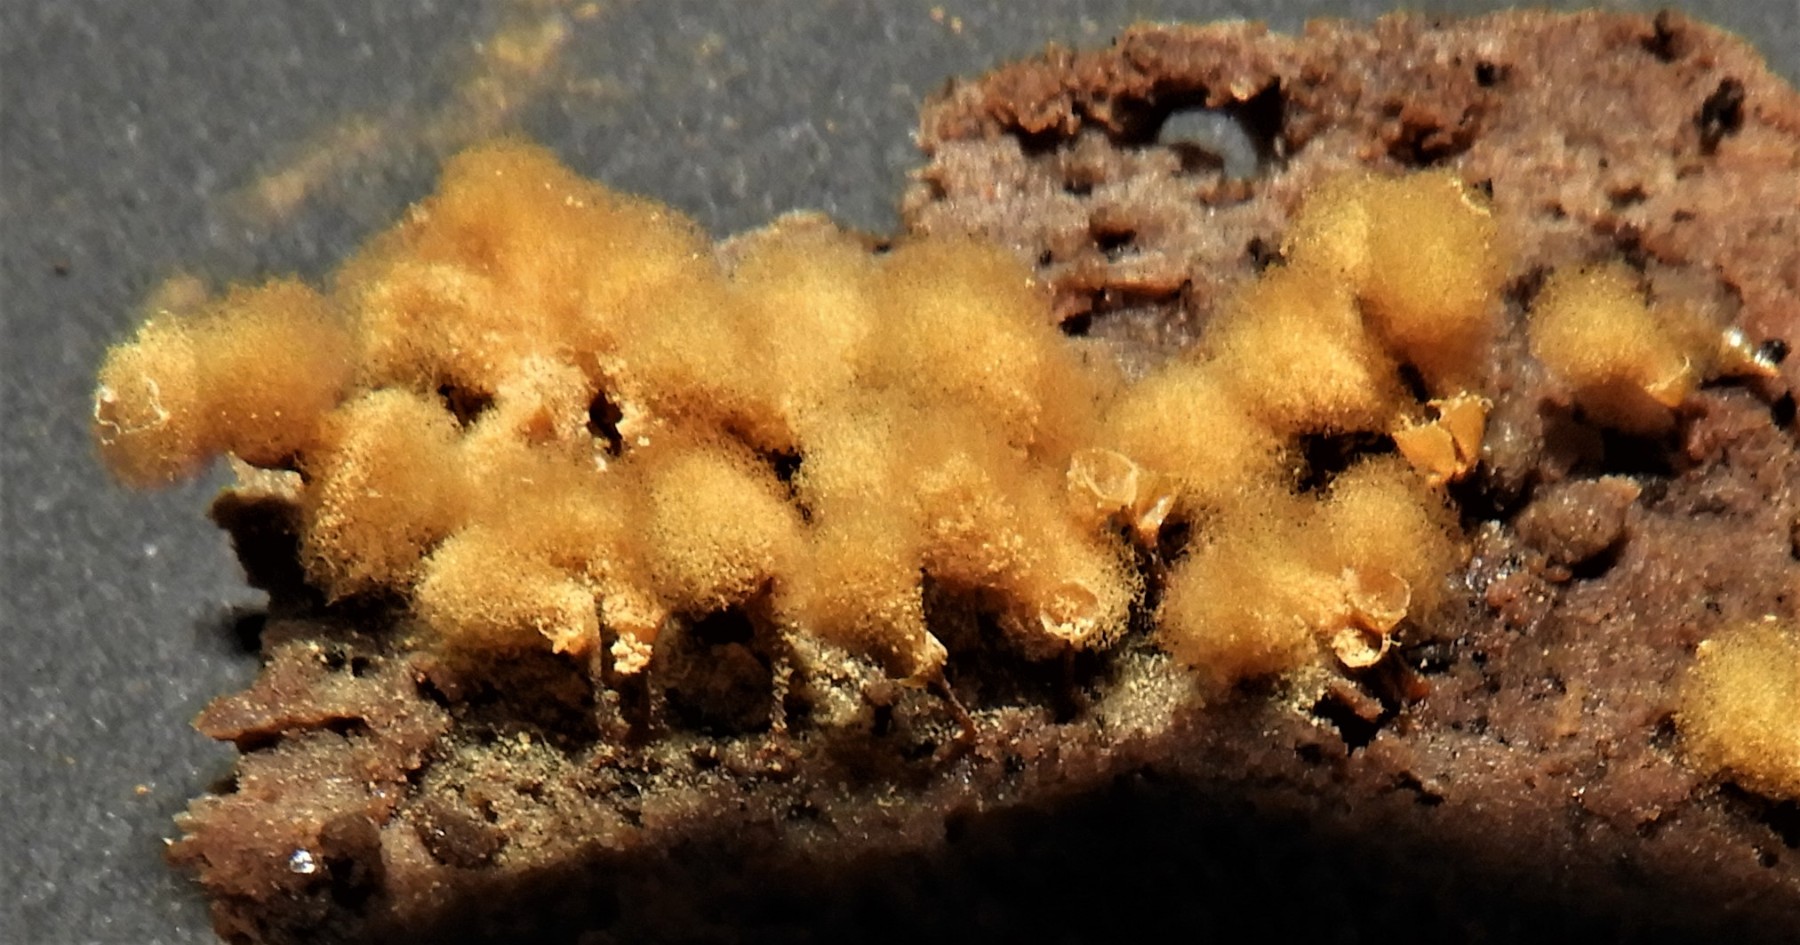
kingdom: Protozoa
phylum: Mycetozoa
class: Myxomycetes
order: Trichiales
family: Arcyriaceae
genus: Hemitrichia
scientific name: Hemitrichia clavata
